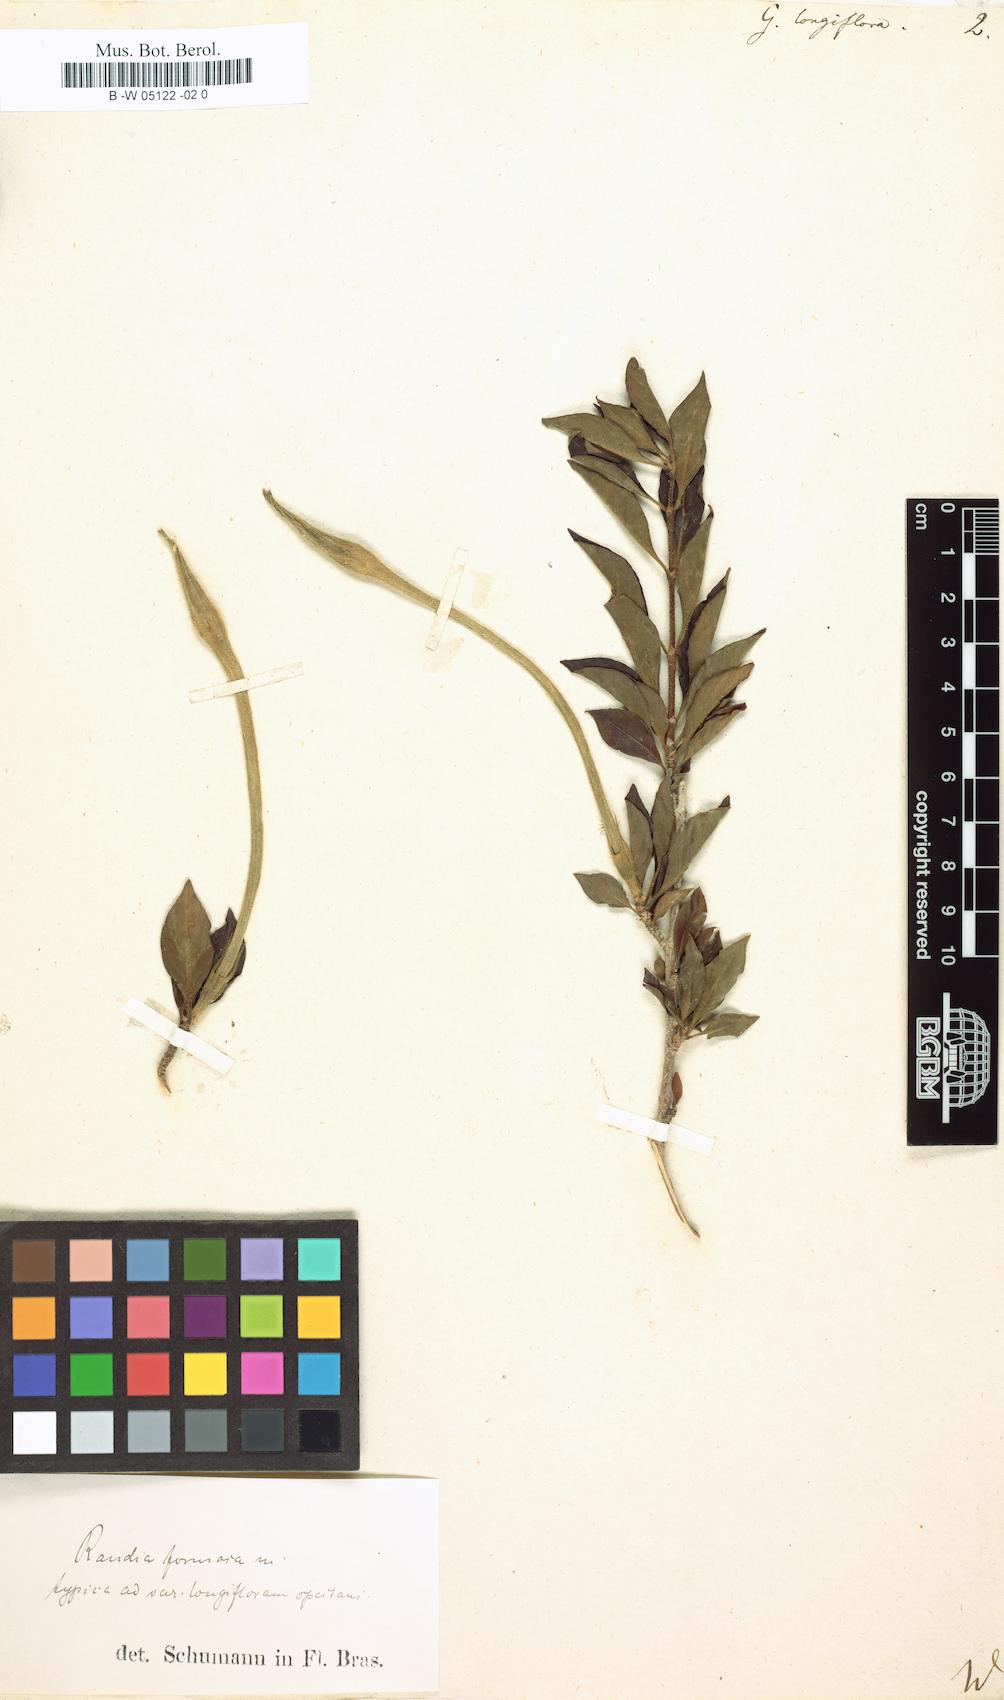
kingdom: Plantae
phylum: Tracheophyta
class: Magnoliopsida
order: Gentianales
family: Rubiaceae
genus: Rosenbergiodendron
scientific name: Rosenbergiodendron longiflorum
